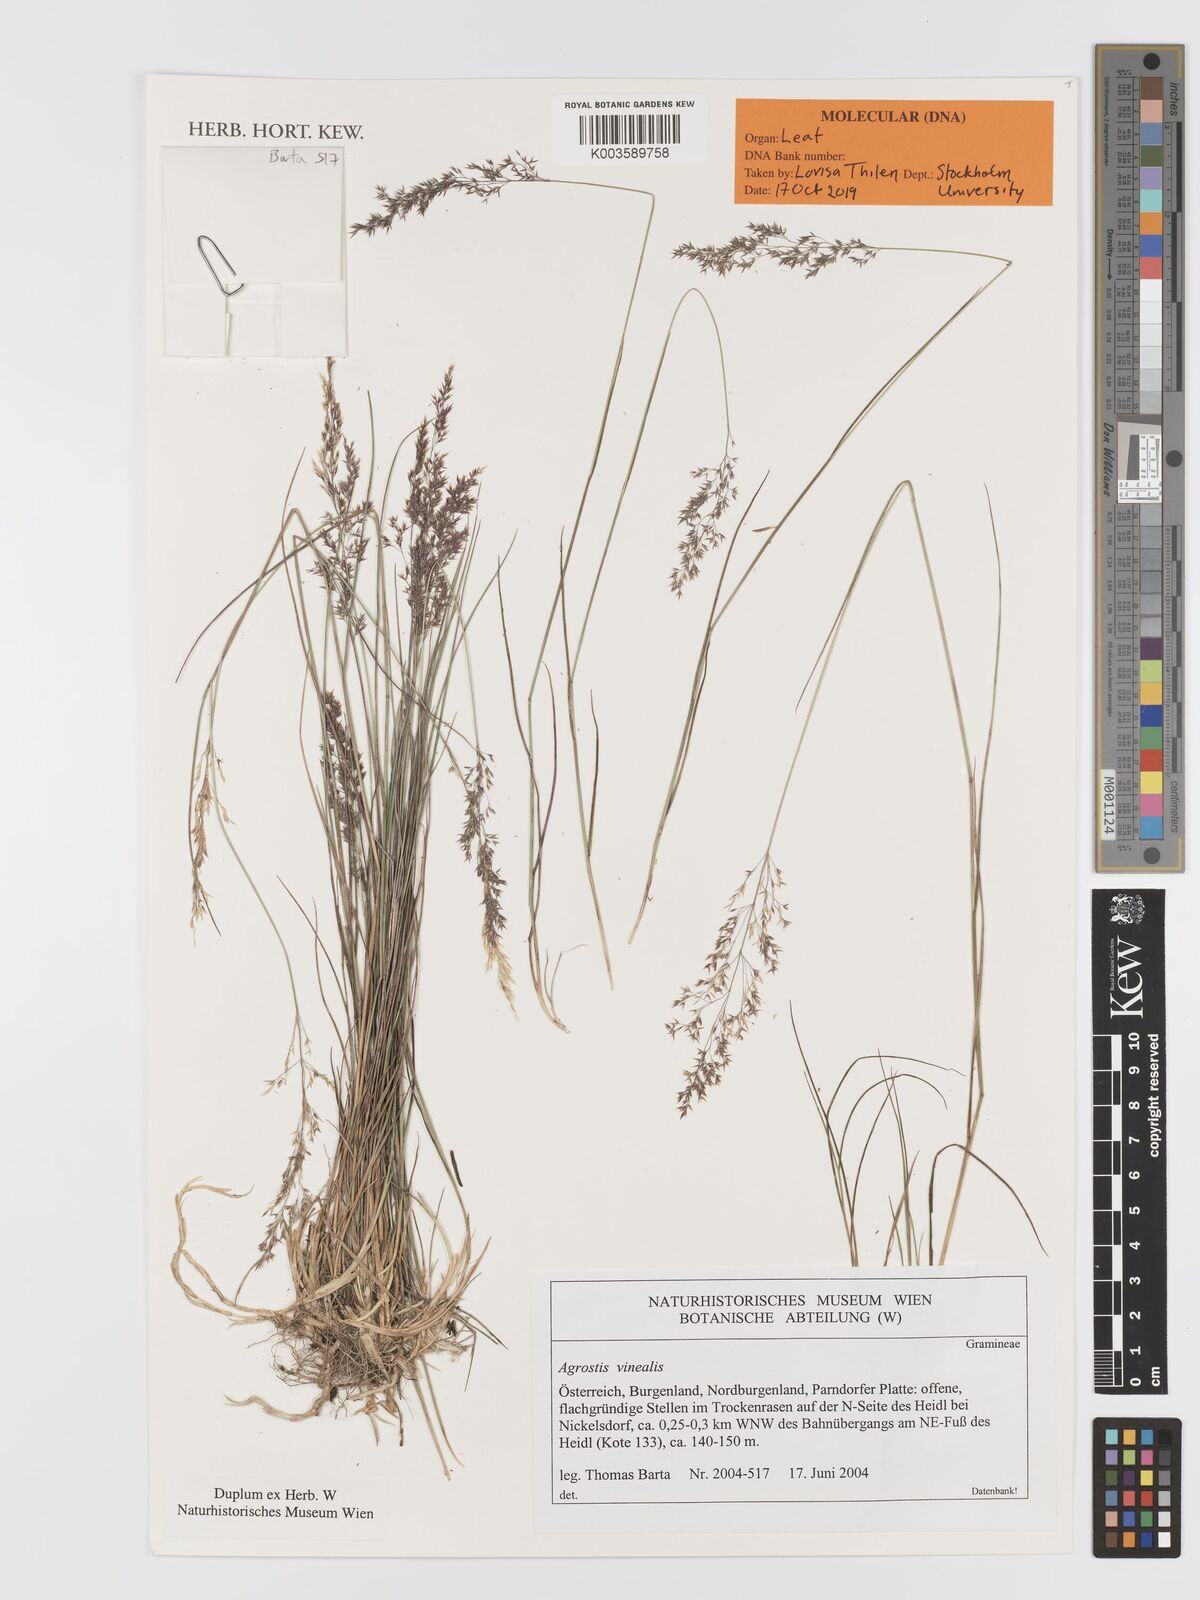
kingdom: Plantae
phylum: Tracheophyta
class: Liliopsida
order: Poales
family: Poaceae
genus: Agrostis
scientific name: Agrostis
